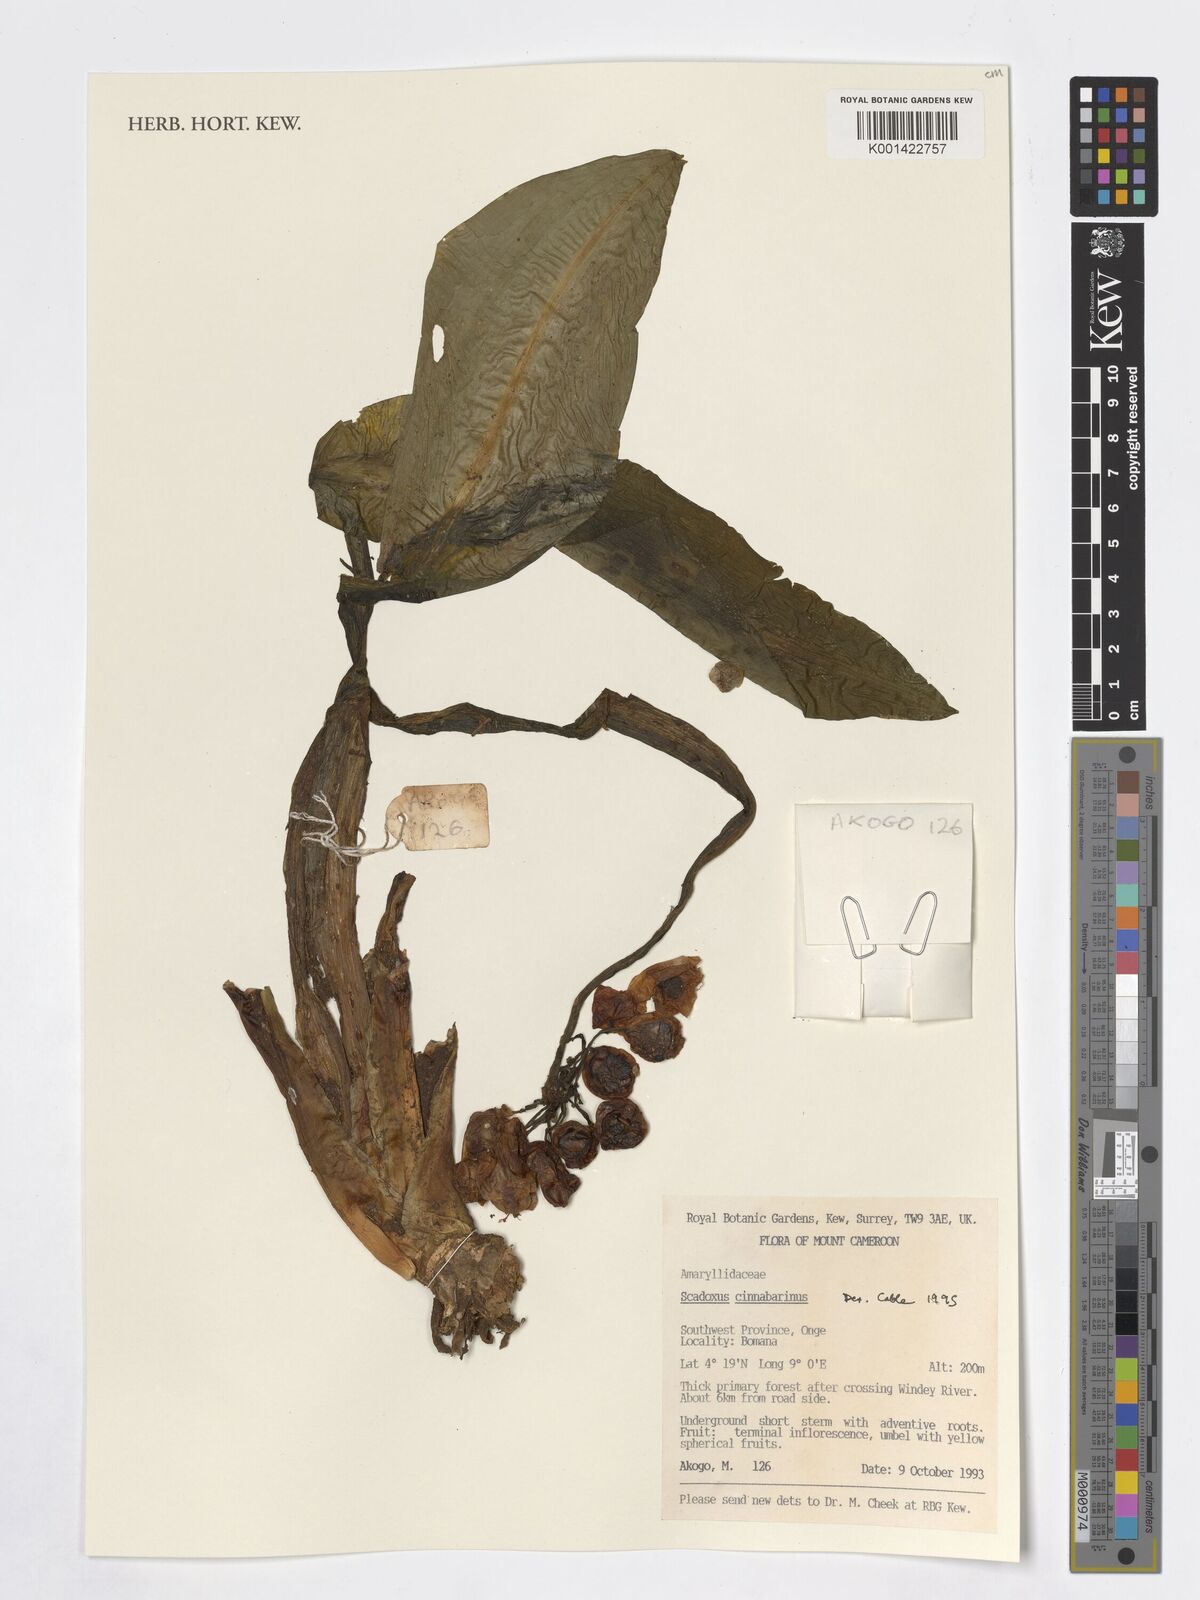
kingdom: Plantae
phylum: Tracheophyta
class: Liliopsida
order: Asparagales
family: Amaryllidaceae
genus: Scadoxus
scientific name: Scadoxus cinnabarinus
